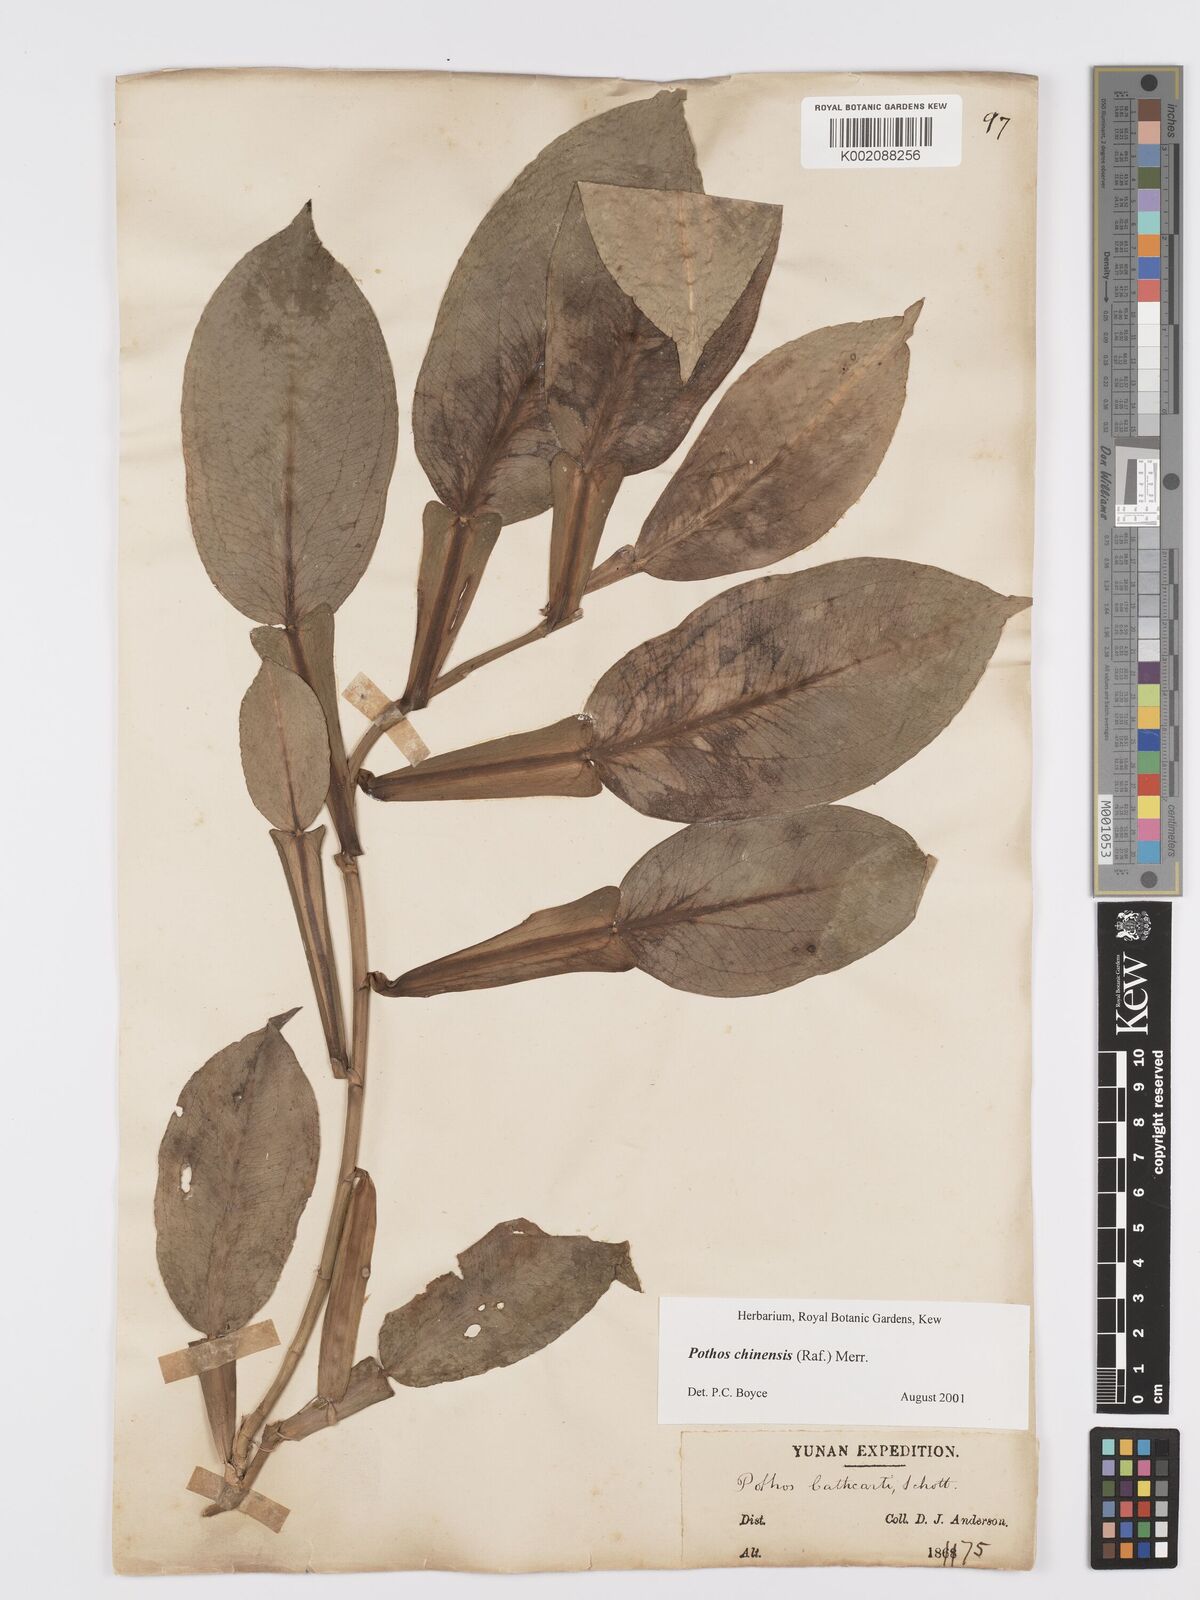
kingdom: Plantae
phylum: Tracheophyta
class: Liliopsida
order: Alismatales
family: Araceae
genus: Pothos
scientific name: Pothos chinensis
